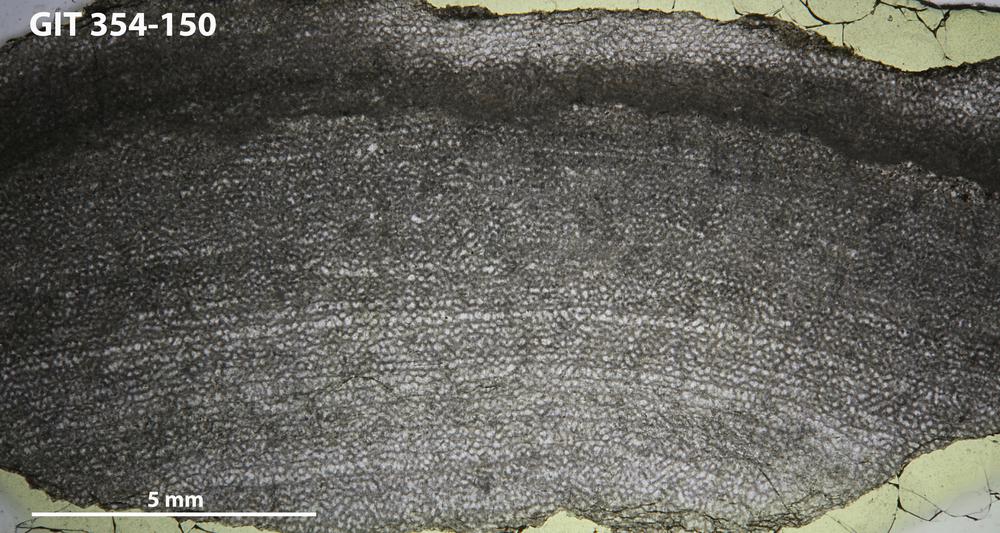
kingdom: Animalia
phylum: Porifera
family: Clathrodictyidae
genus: Clathrodictyon
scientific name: Clathrodictyon boreale
